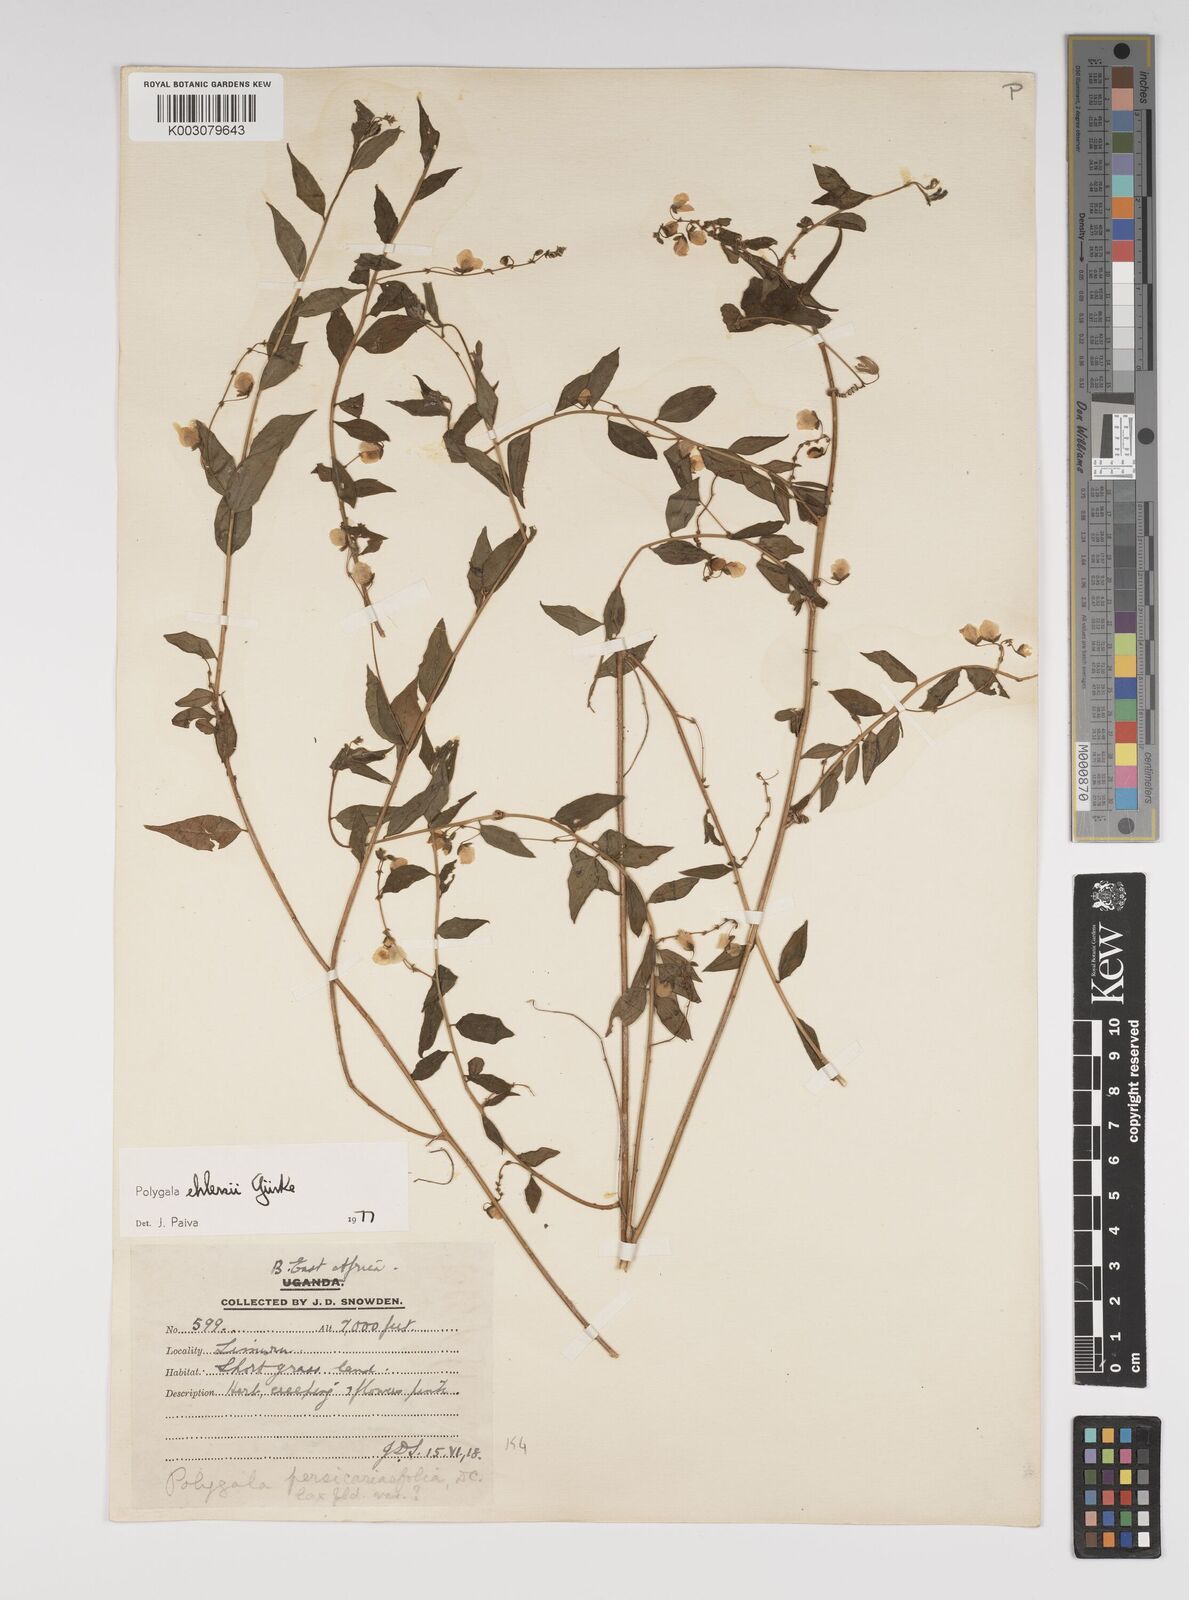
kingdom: Plantae
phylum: Tracheophyta
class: Magnoliopsida
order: Fabales
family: Polygalaceae
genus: Polygala
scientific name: Polygala ehlersii
